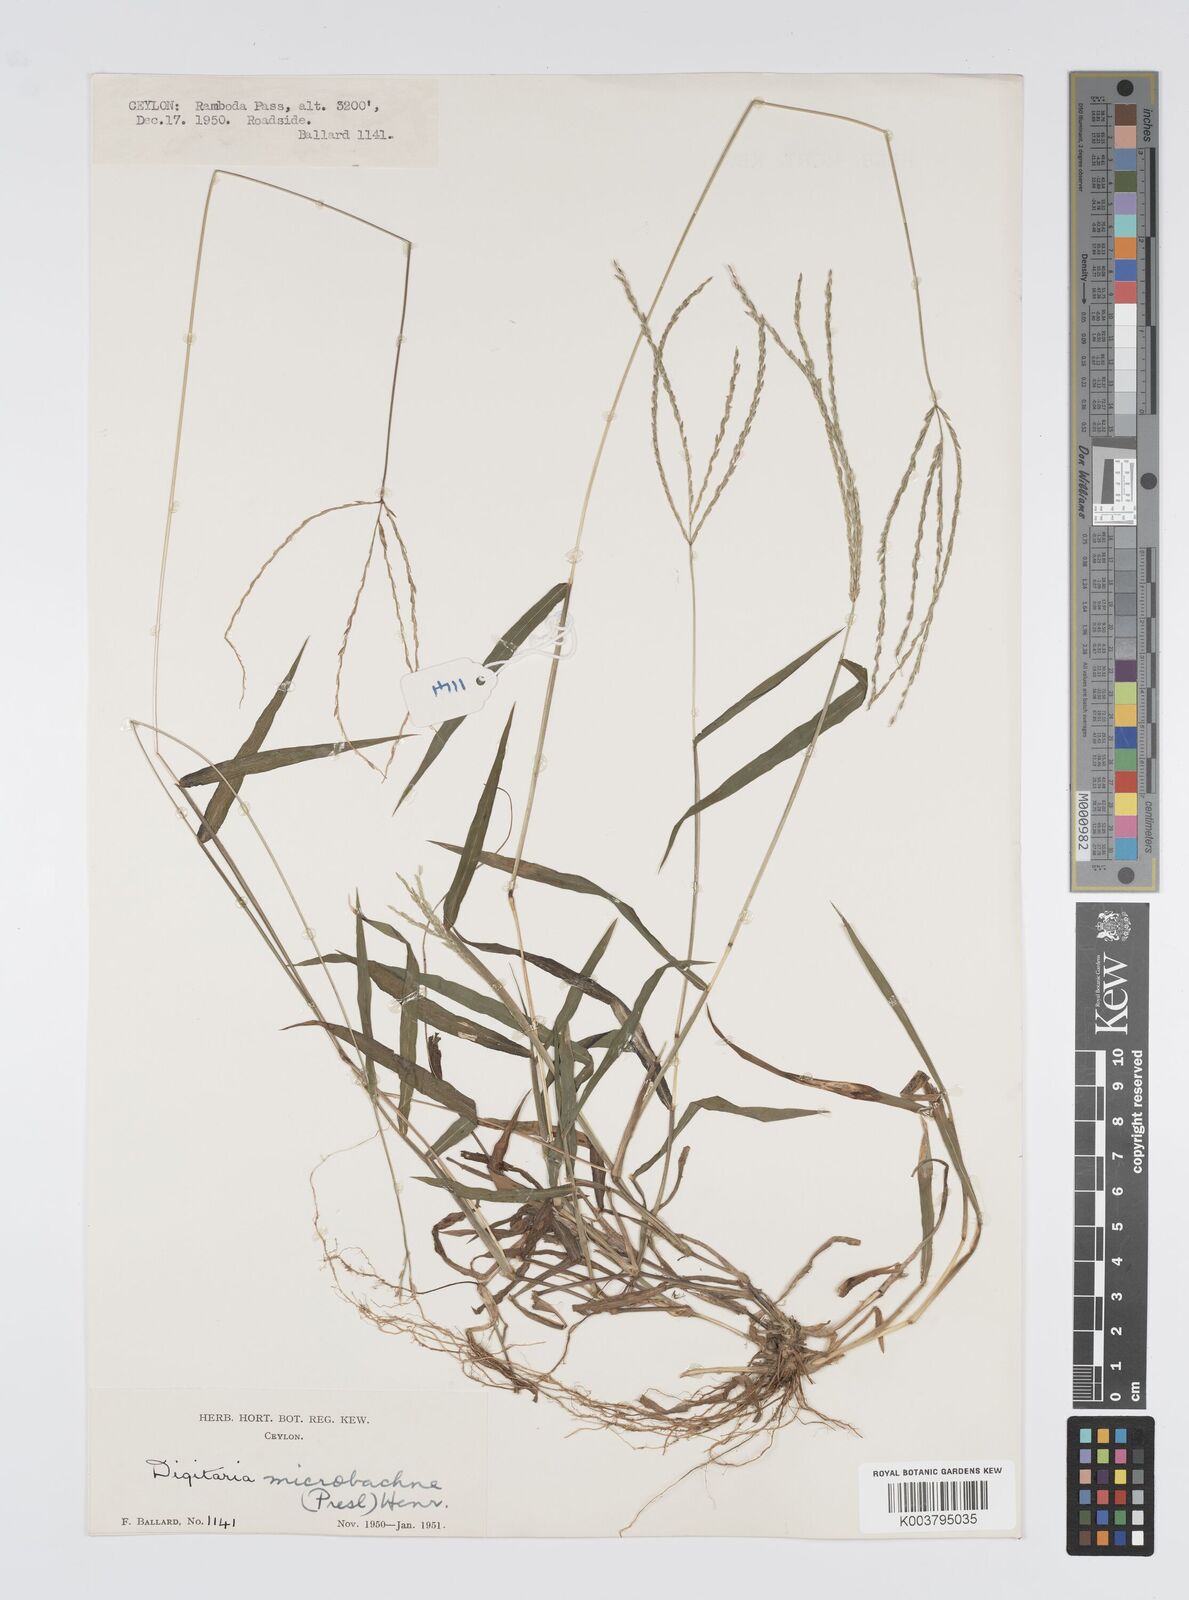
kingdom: Plantae
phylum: Tracheophyta
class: Liliopsida
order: Poales
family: Poaceae
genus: Digitaria
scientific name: Digitaria setigera
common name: East indian crabgrass
